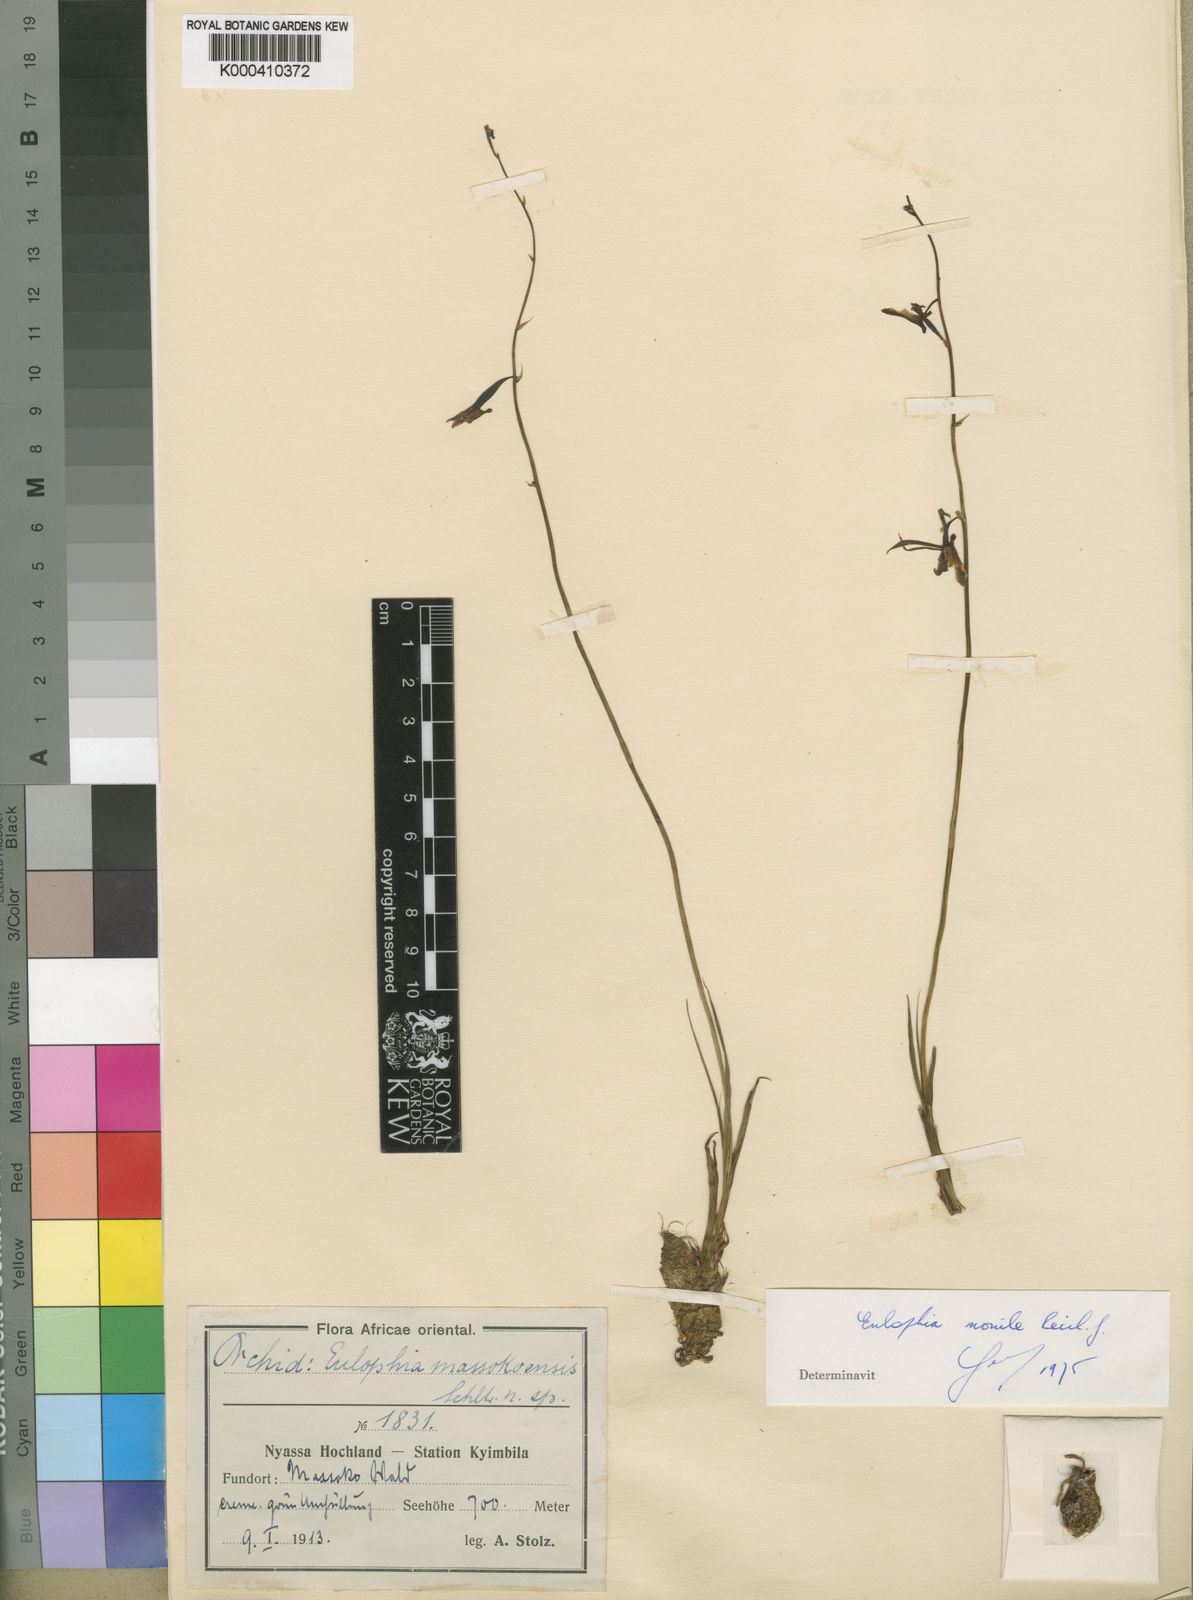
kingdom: Plantae
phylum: Tracheophyta
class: Liliopsida
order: Asparagales
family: Orchidaceae
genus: Eulophia
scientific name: Eulophia massokoensis
